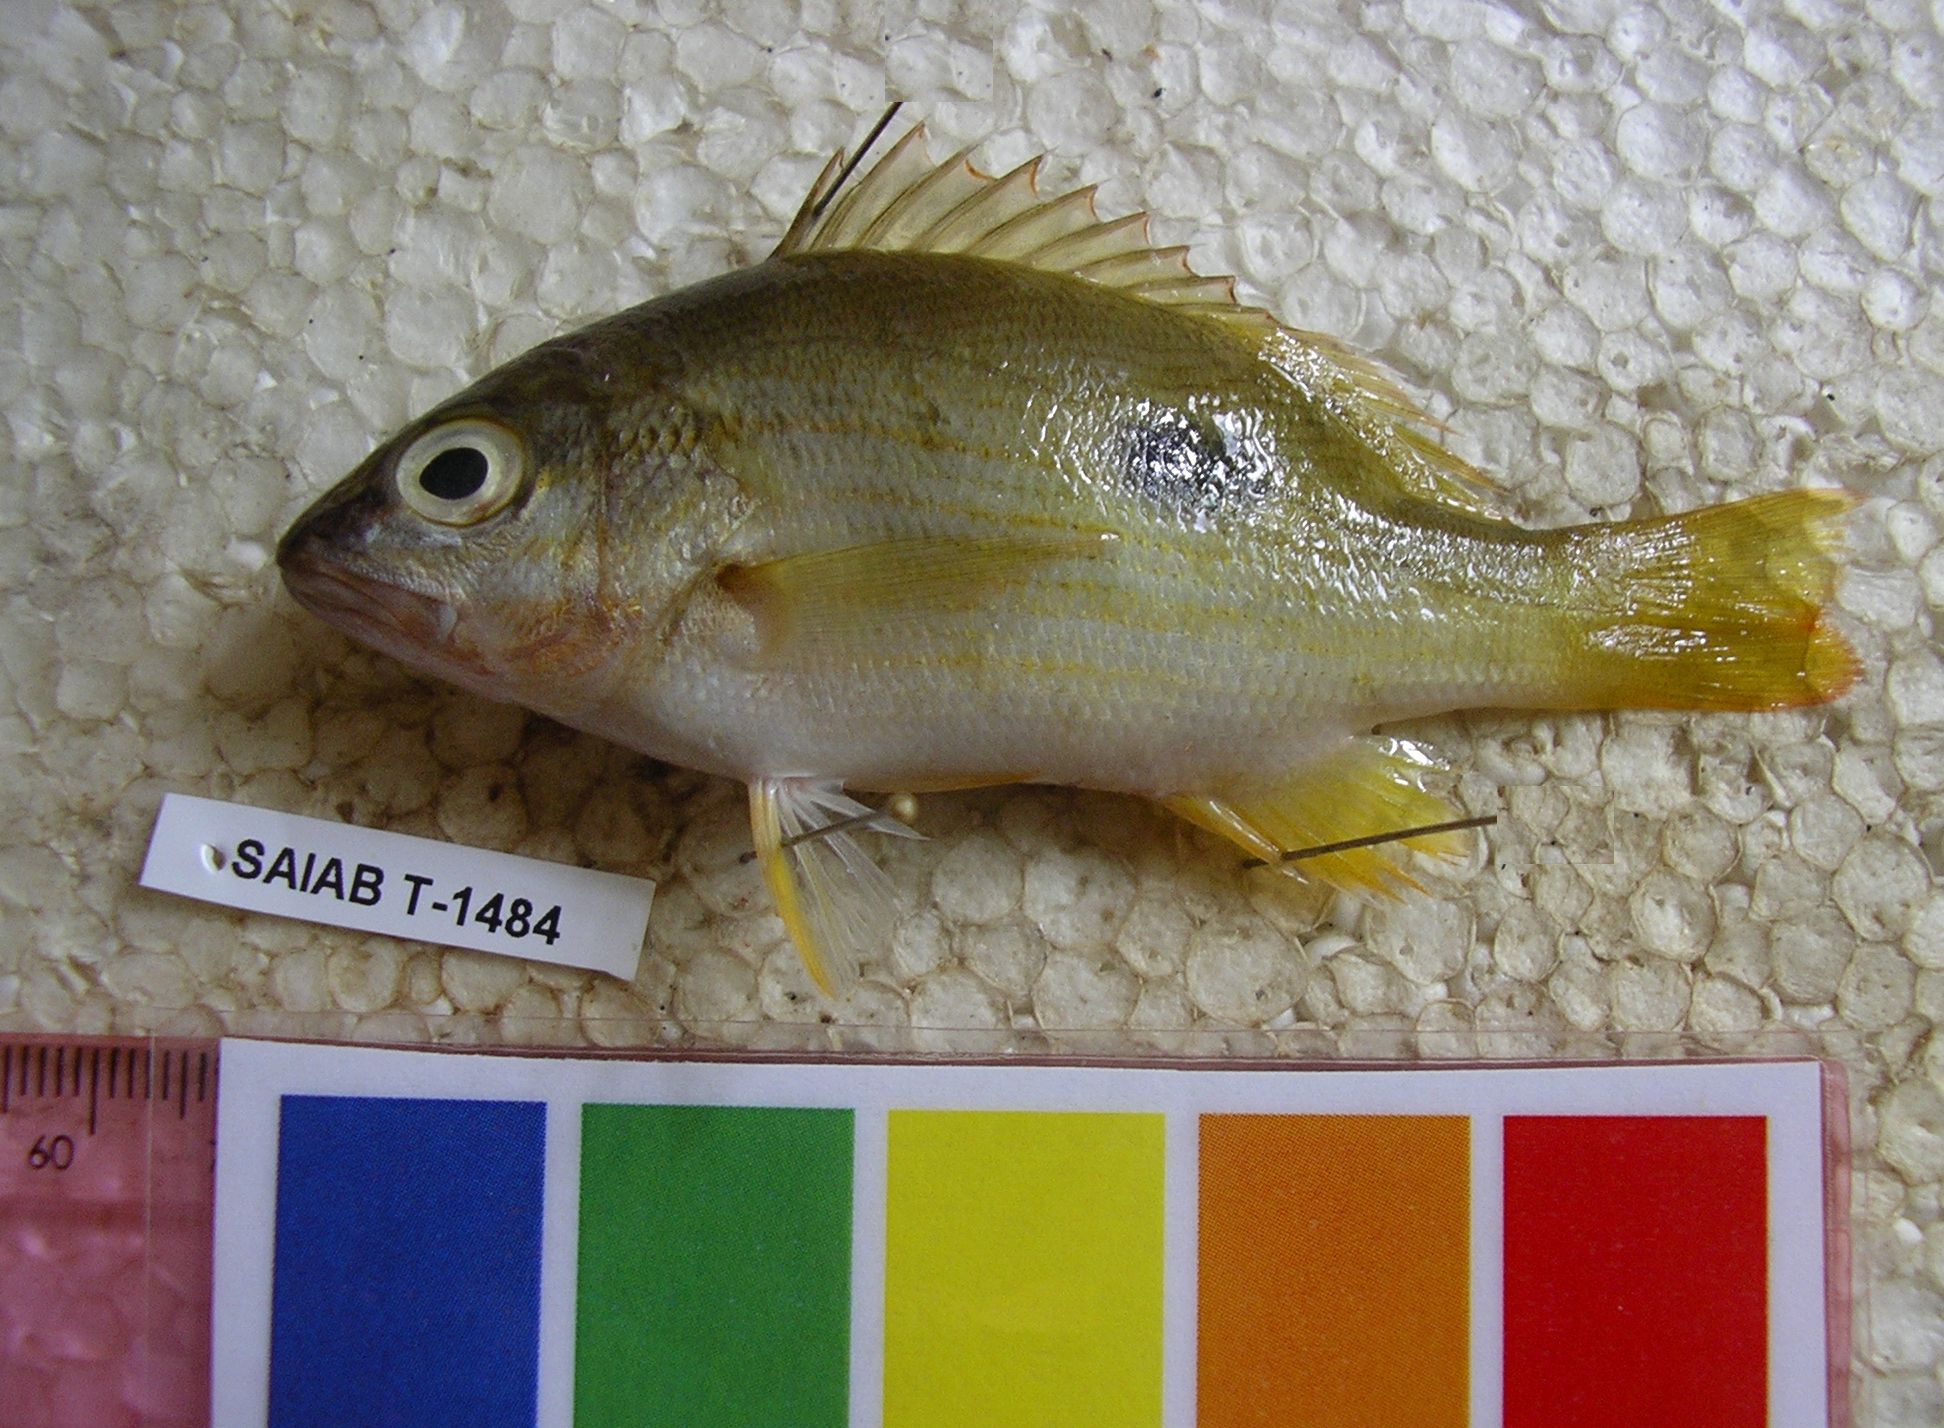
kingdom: Animalia
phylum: Chordata
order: Perciformes
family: Lutjanidae
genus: Lutjanus
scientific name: Lutjanus lutjanus
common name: Bigeye snapper
